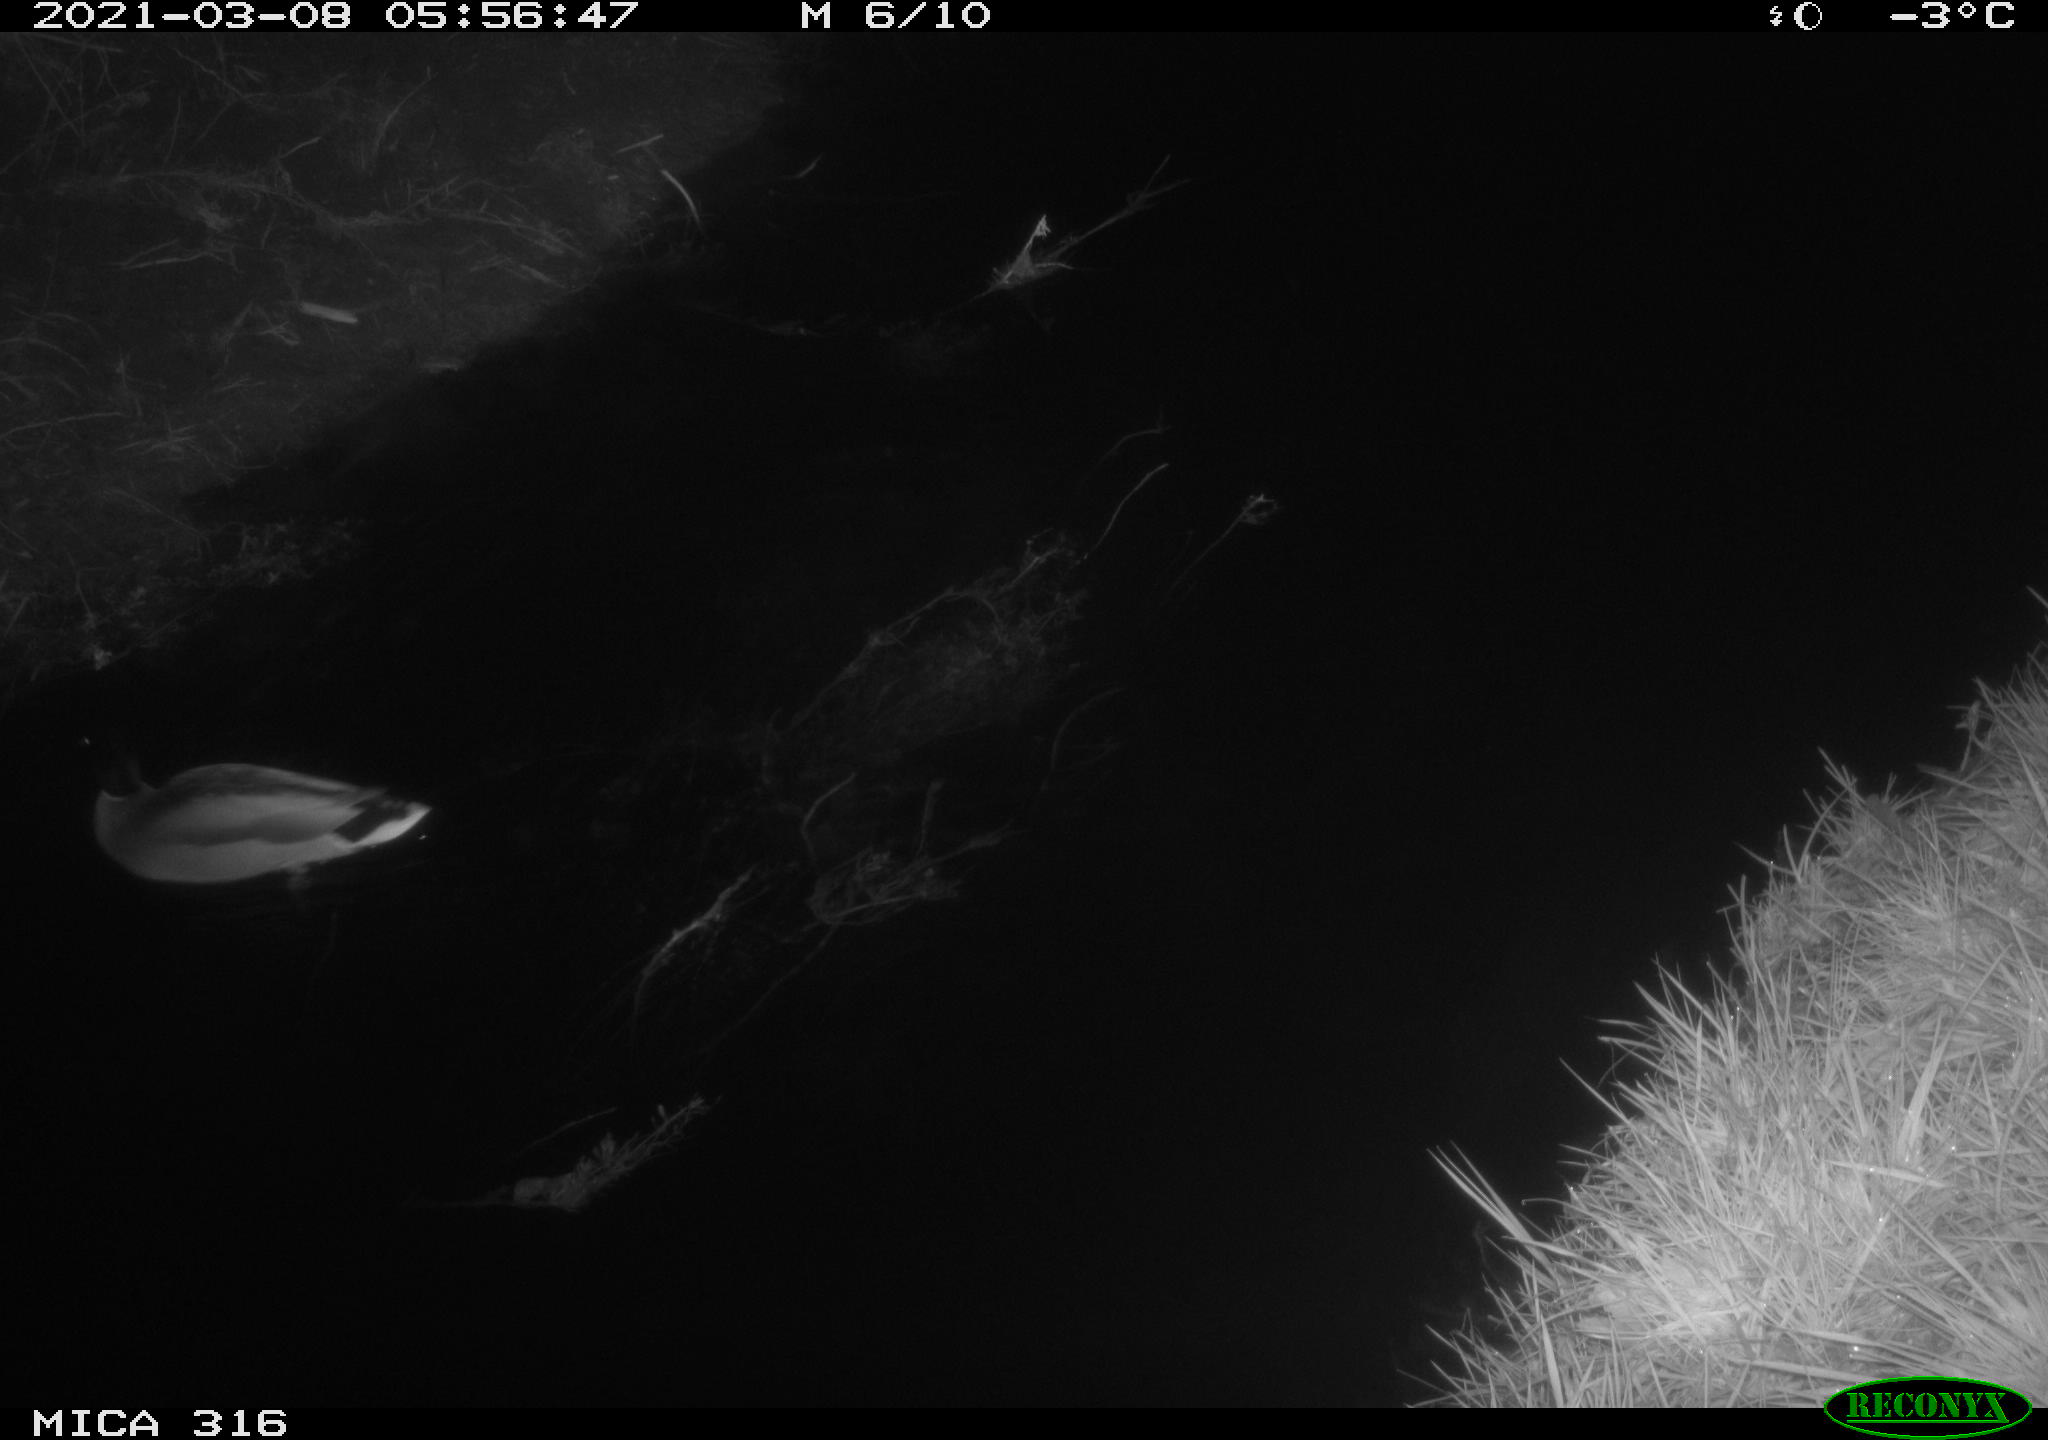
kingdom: Animalia
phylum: Chordata
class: Aves
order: Anseriformes
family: Anatidae
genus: Anas
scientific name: Anas platyrhynchos
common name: Mallard
